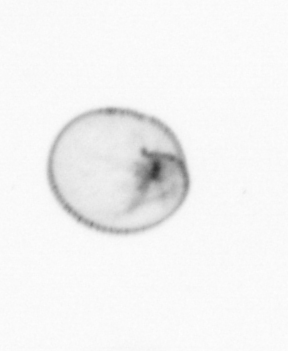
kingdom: Chromista
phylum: Myzozoa
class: Dinophyceae
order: Noctilucales
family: Noctilucaceae
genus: Noctiluca
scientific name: Noctiluca scintillans
